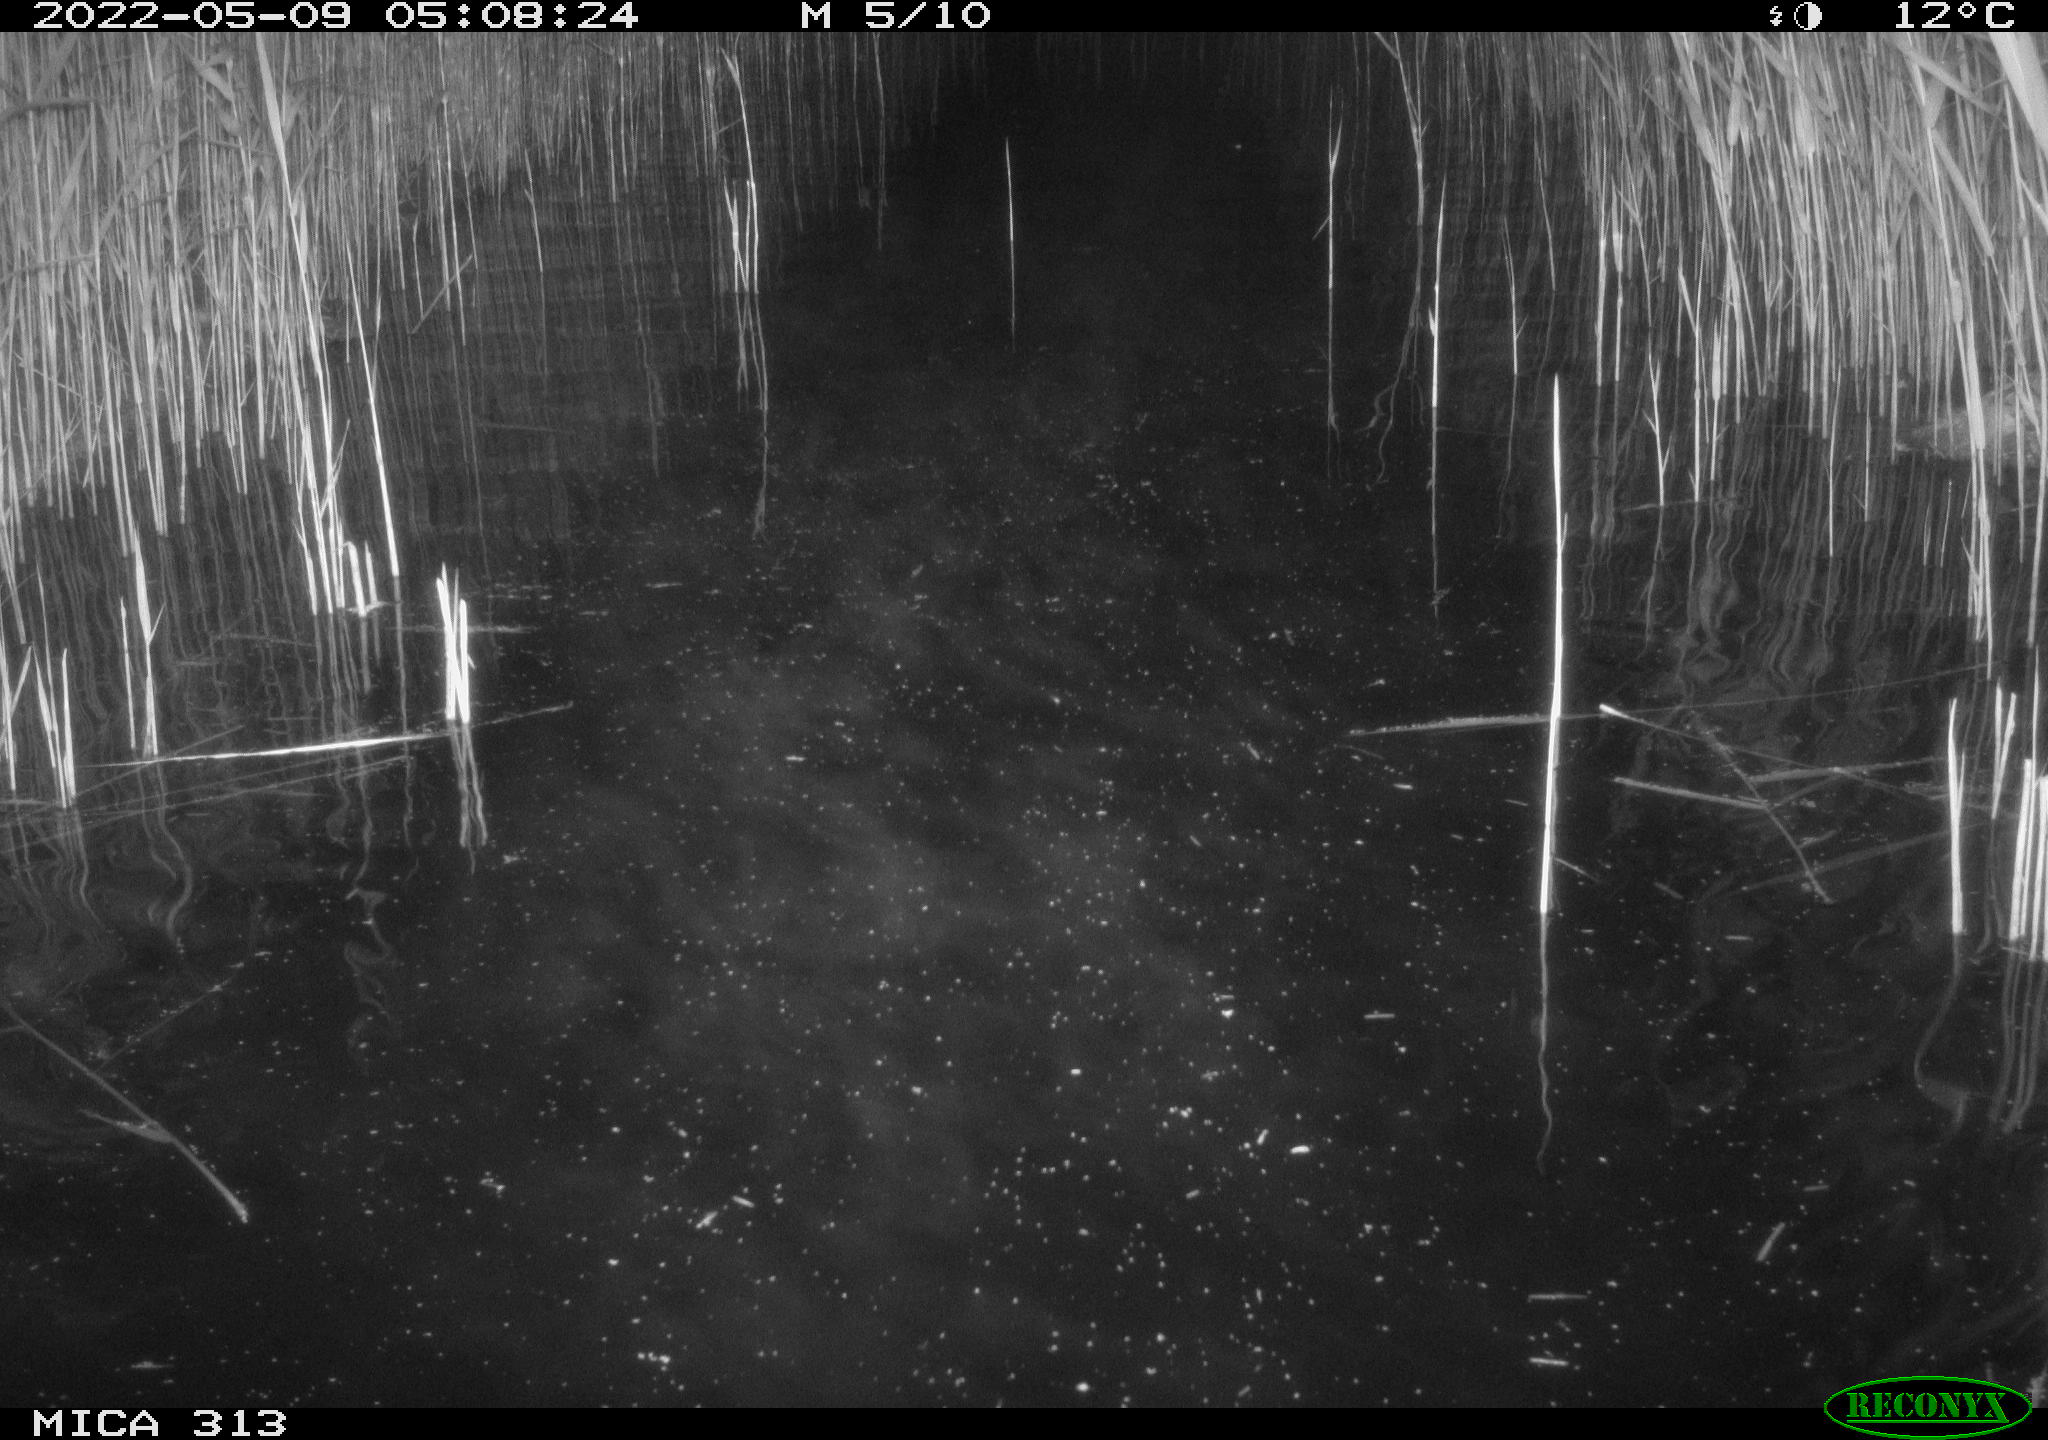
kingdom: Animalia
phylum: Chordata
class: Aves
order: Anseriformes
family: Anatidae
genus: Anas
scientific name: Anas platyrhynchos
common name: Mallard
